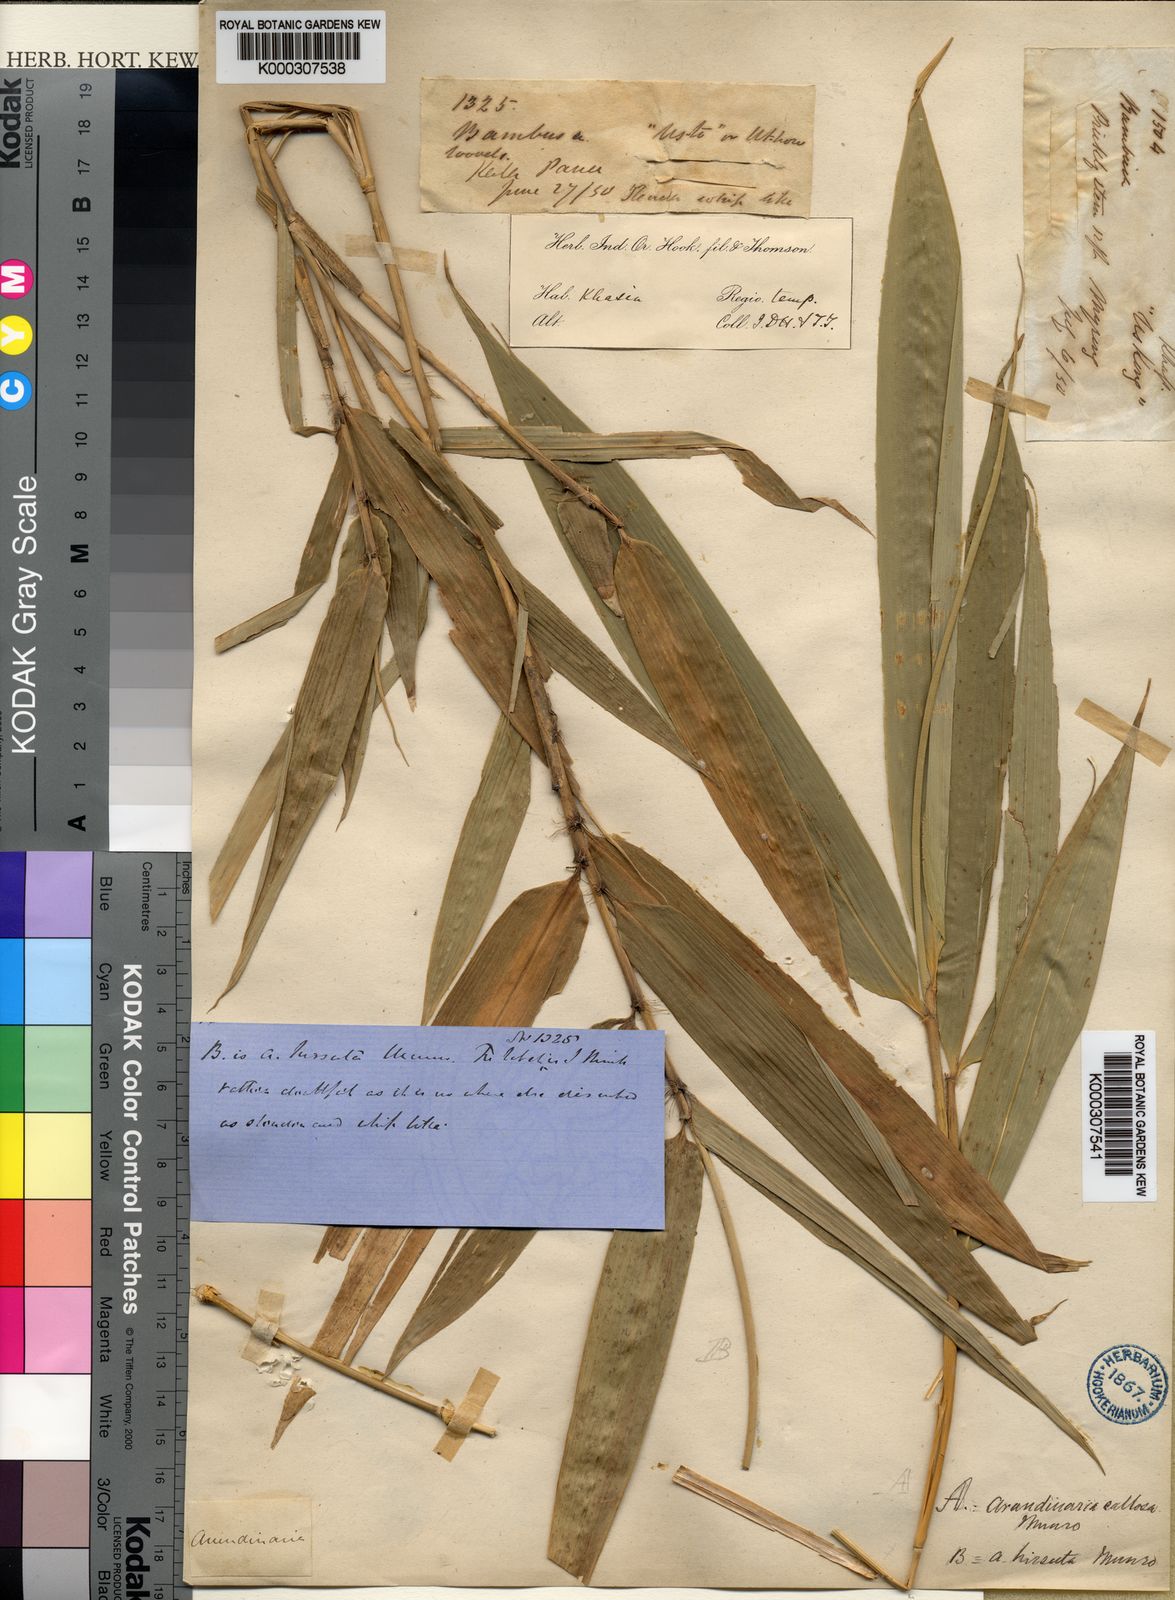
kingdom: Plantae
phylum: Tracheophyta
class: Liliopsida
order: Poales
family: Poaceae
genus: Chimonobambusa
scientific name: Chimonobambusa callosa
